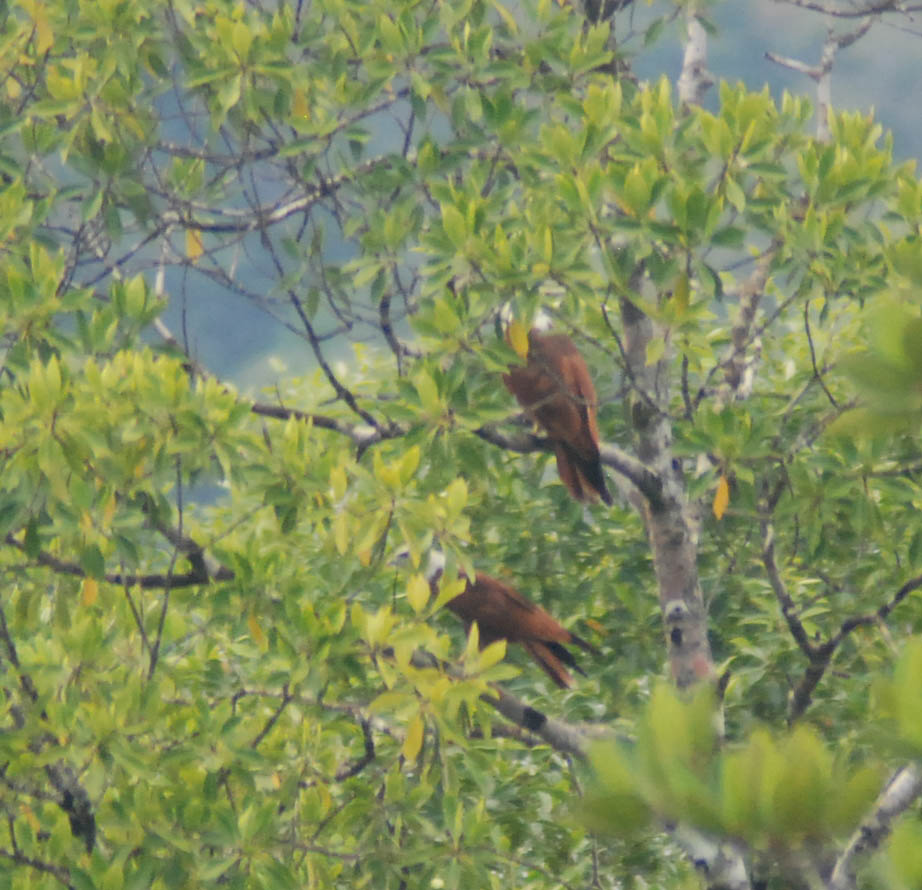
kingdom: Animalia
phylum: Chordata
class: Aves
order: Accipitriformes
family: Accipitridae
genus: Haliastur
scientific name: Haliastur indus
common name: Brahminy kite
